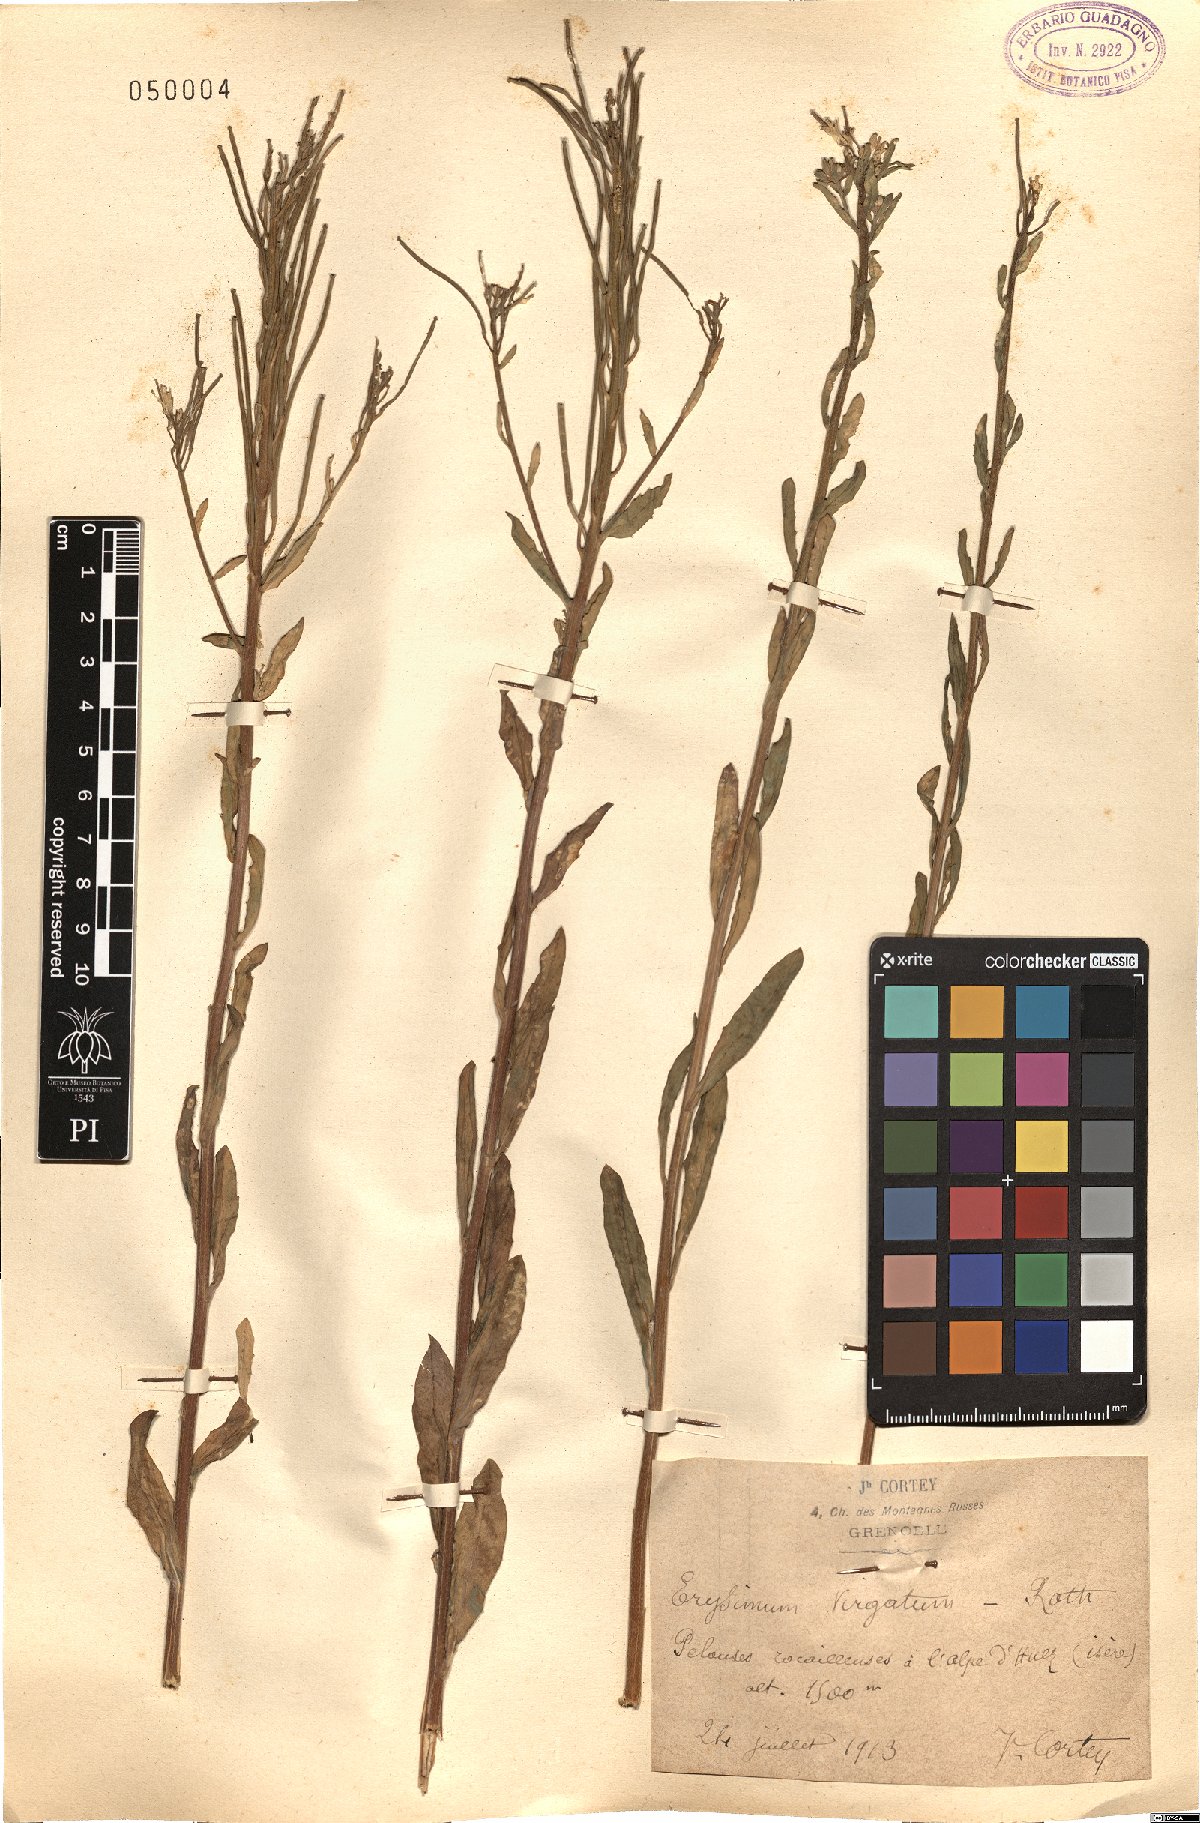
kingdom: Plantae
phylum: Tracheophyta
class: Magnoliopsida
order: Brassicales
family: Brassicaceae
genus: Erysimum
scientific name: Erysimum virgatum
